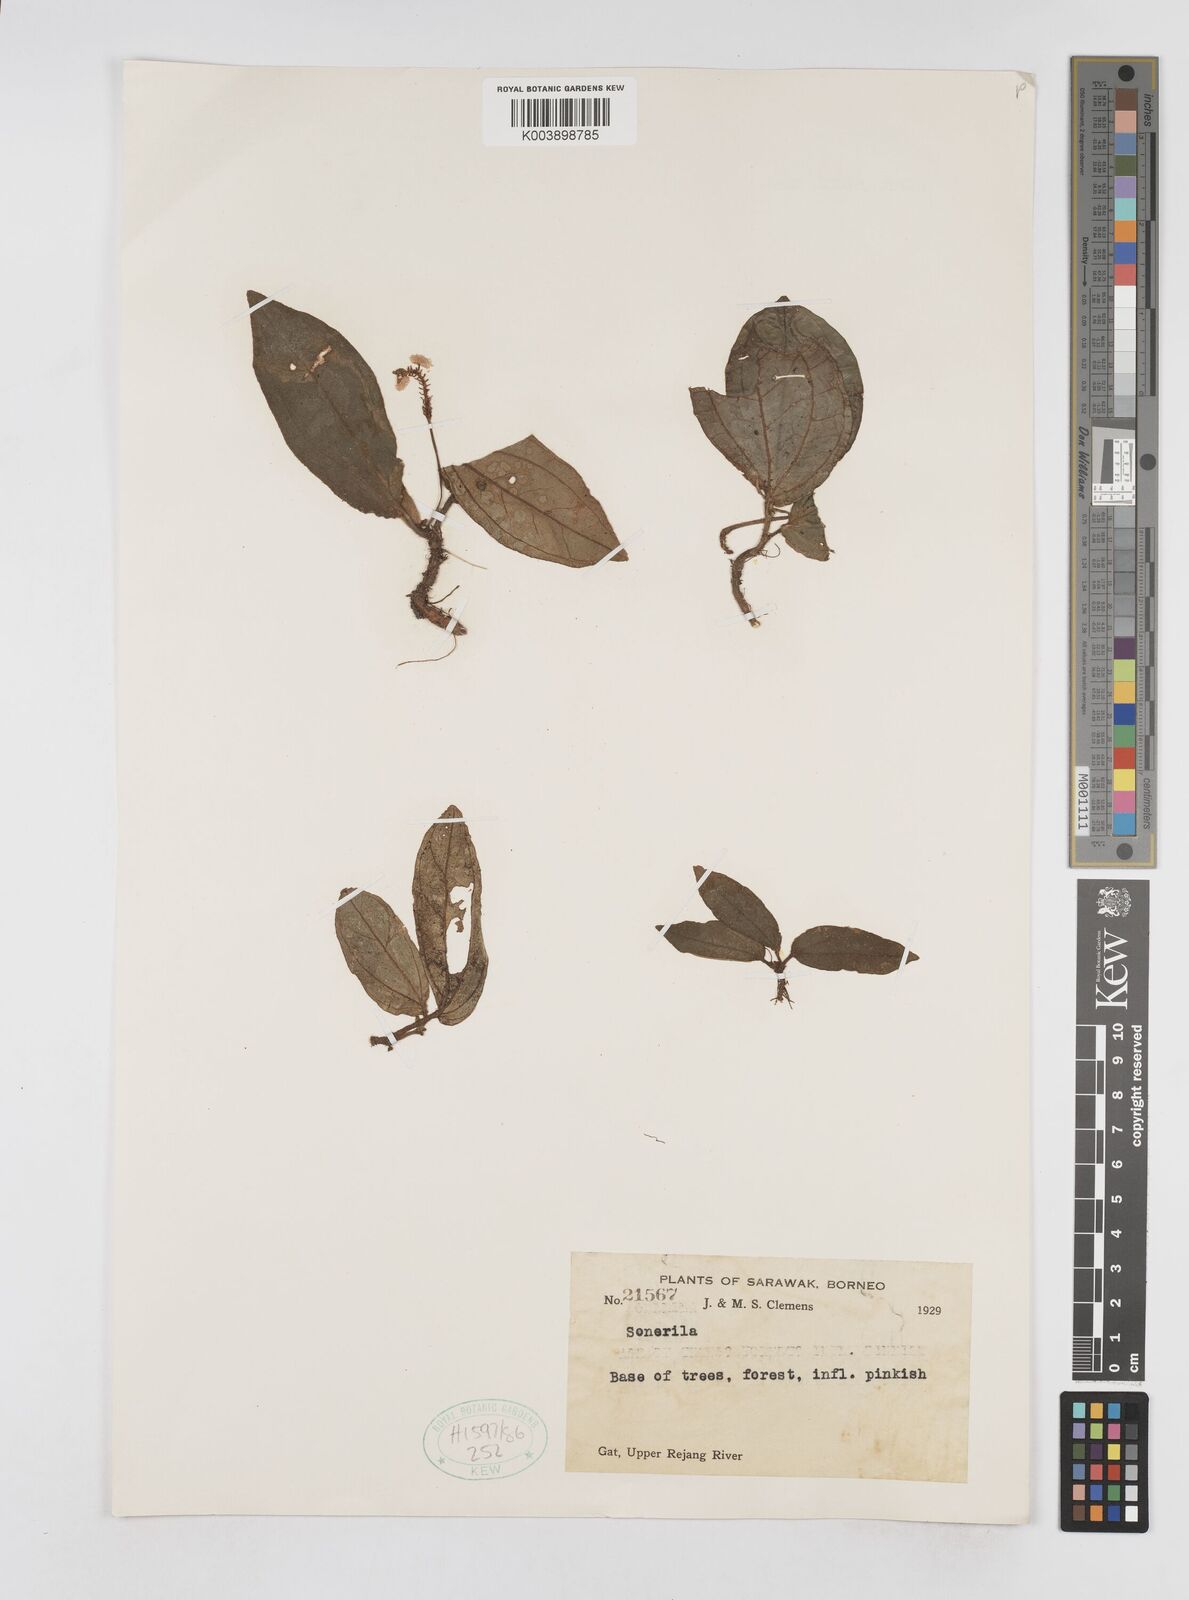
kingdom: Plantae
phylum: Tracheophyta
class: Magnoliopsida
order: Myrtales
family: Melastomataceae
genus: Sonerila
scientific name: Sonerila
